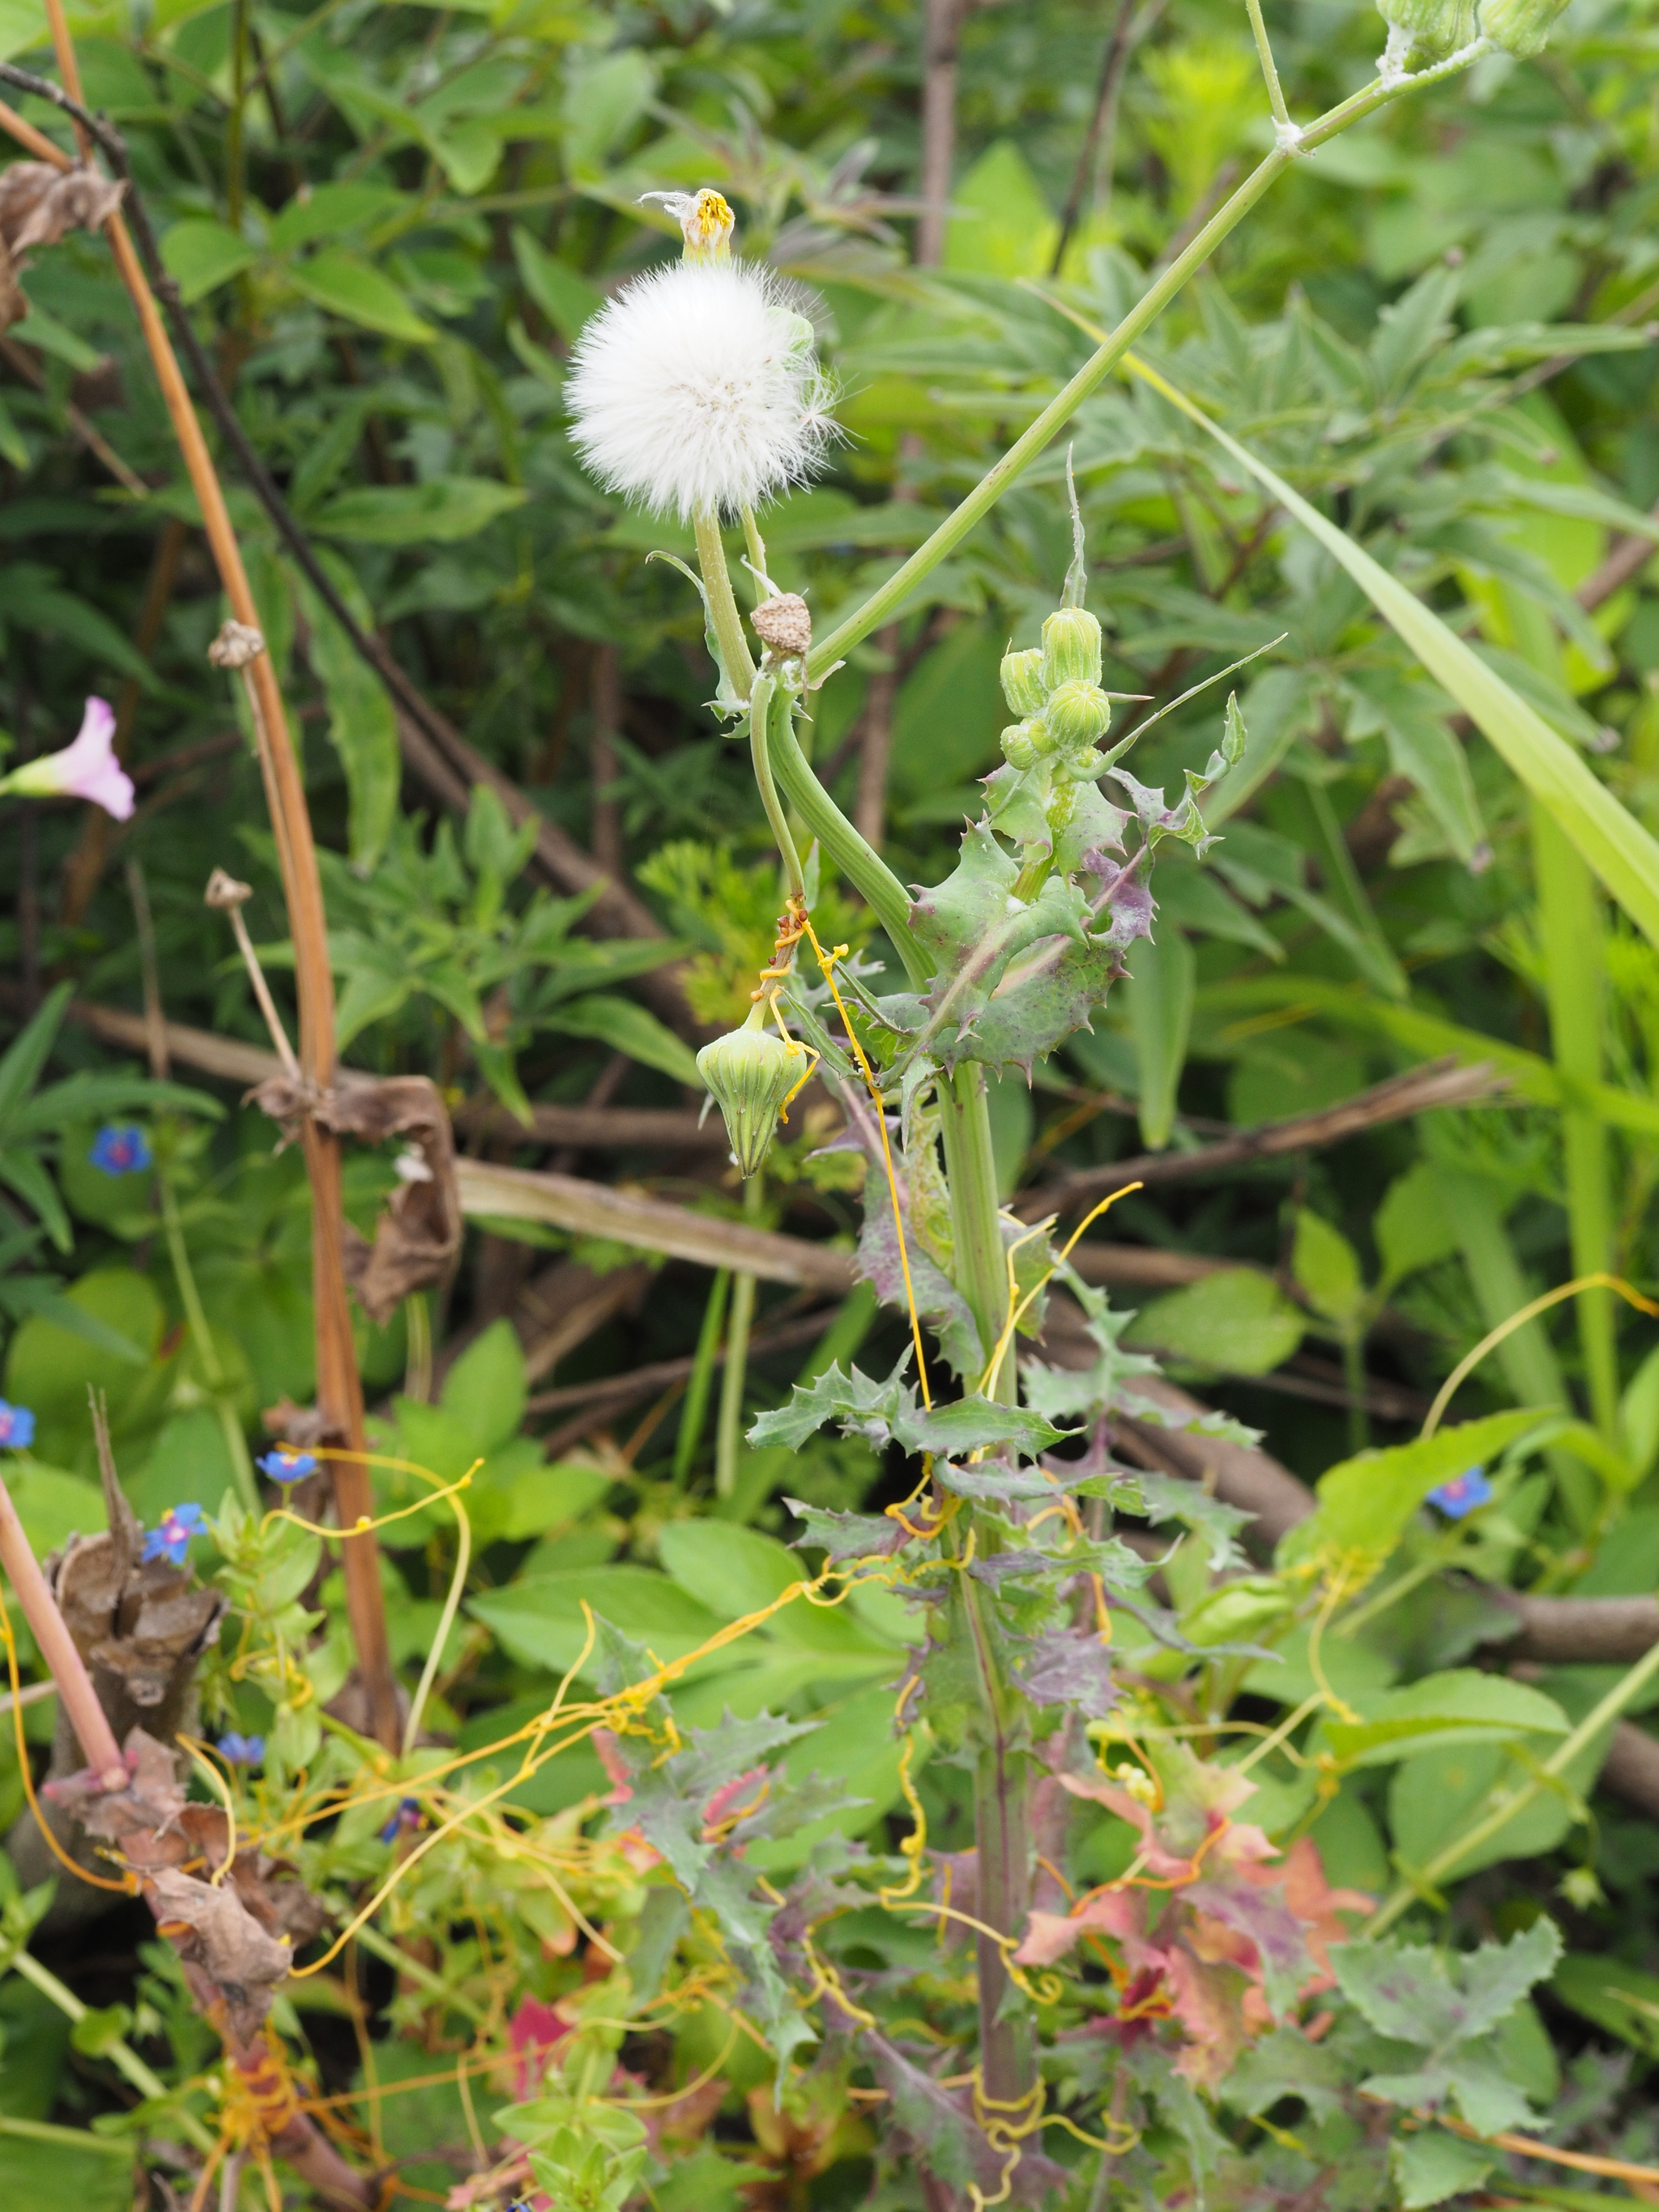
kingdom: Plantae
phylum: Tracheophyta
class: Magnoliopsida
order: Asterales
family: Asteraceae
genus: Sonchus
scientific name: Sonchus oleraceus
